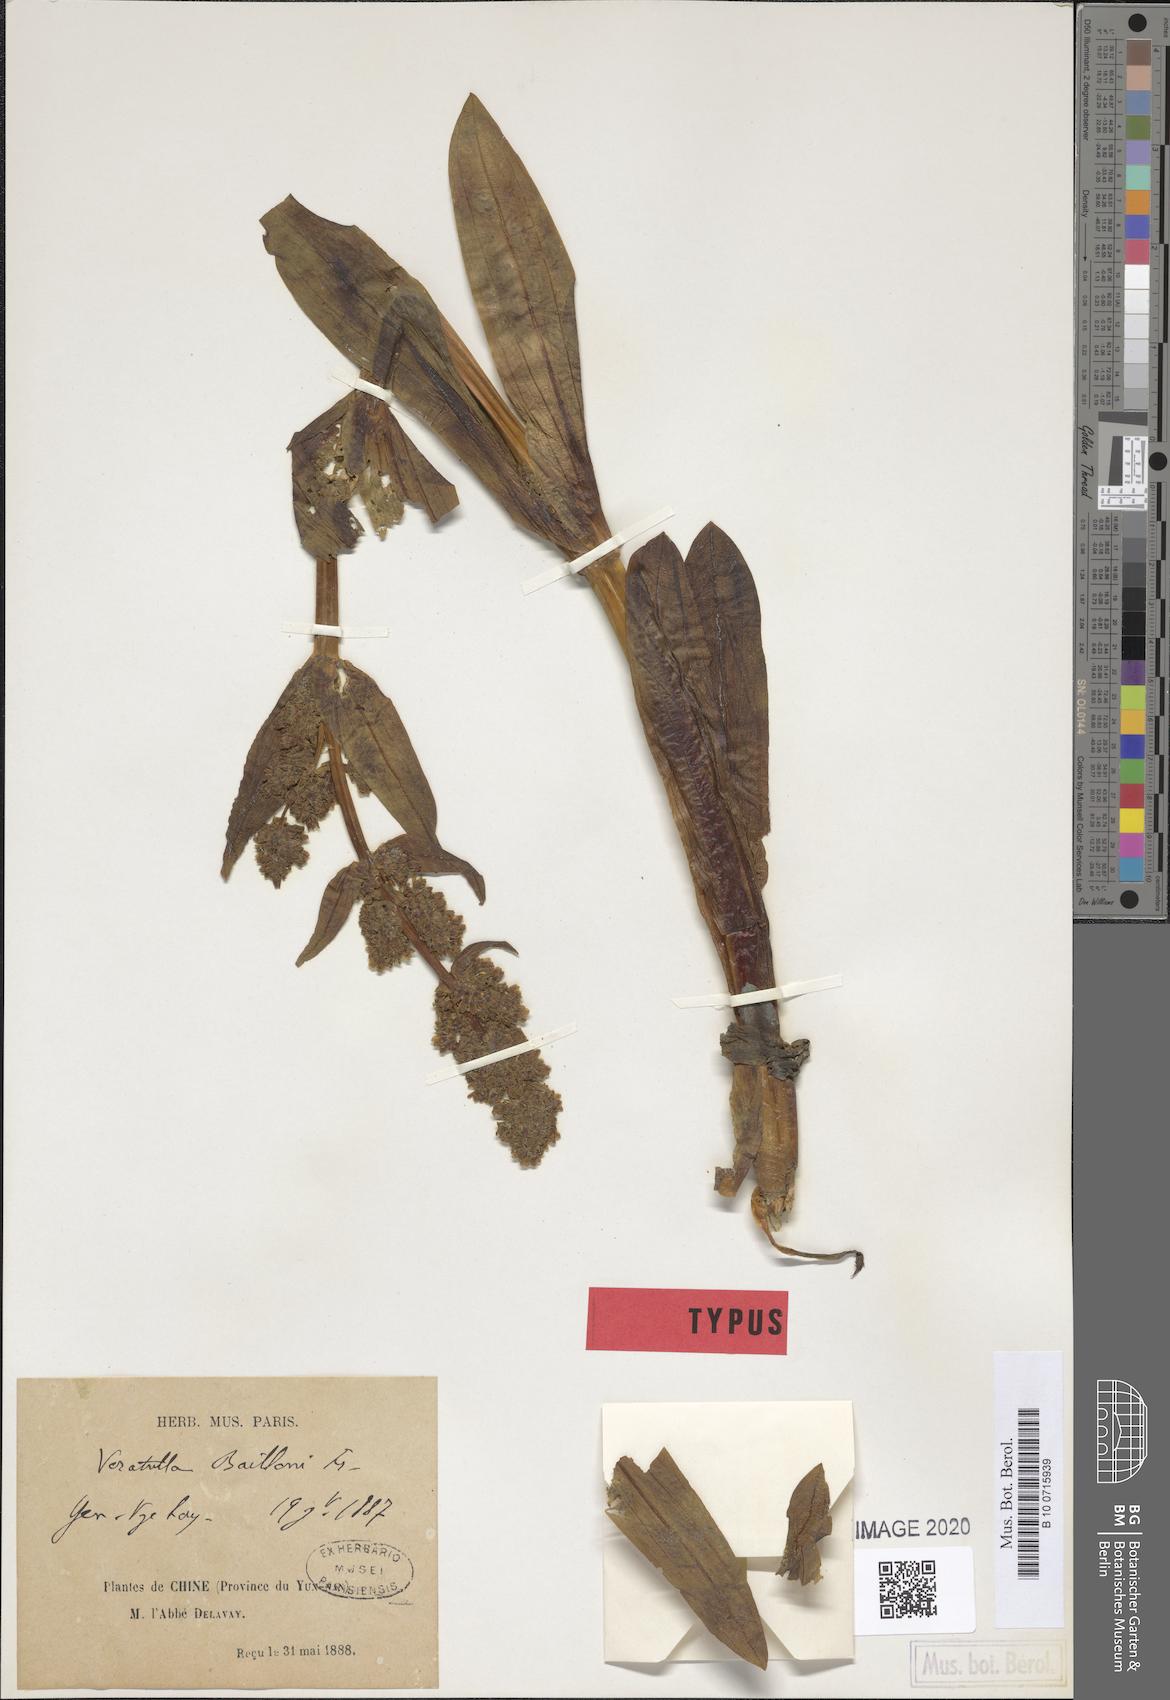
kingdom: Plantae
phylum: Tracheophyta
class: Magnoliopsida
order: Gentianales
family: Gentianaceae
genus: Veratrilla
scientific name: Veratrilla baillonii
